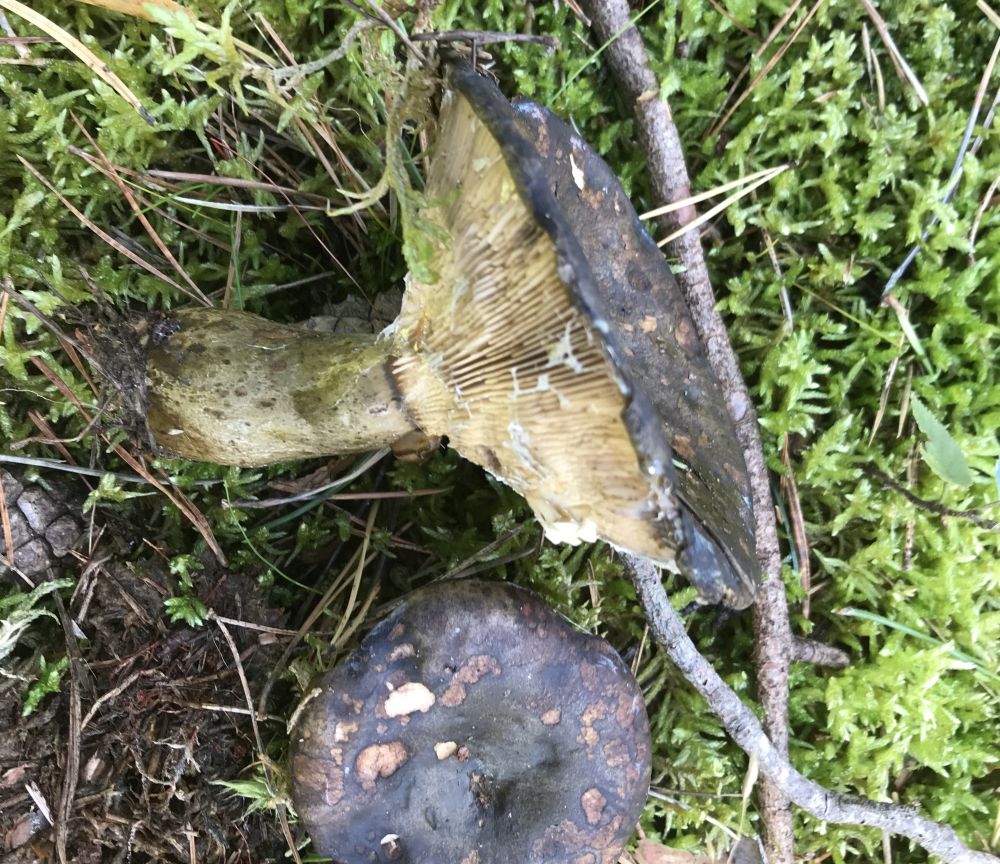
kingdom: Fungi
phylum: Basidiomycota
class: Agaricomycetes
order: Russulales
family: Russulaceae
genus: Lactarius
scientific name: Lactarius necator
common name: manddraber-mælkehat
